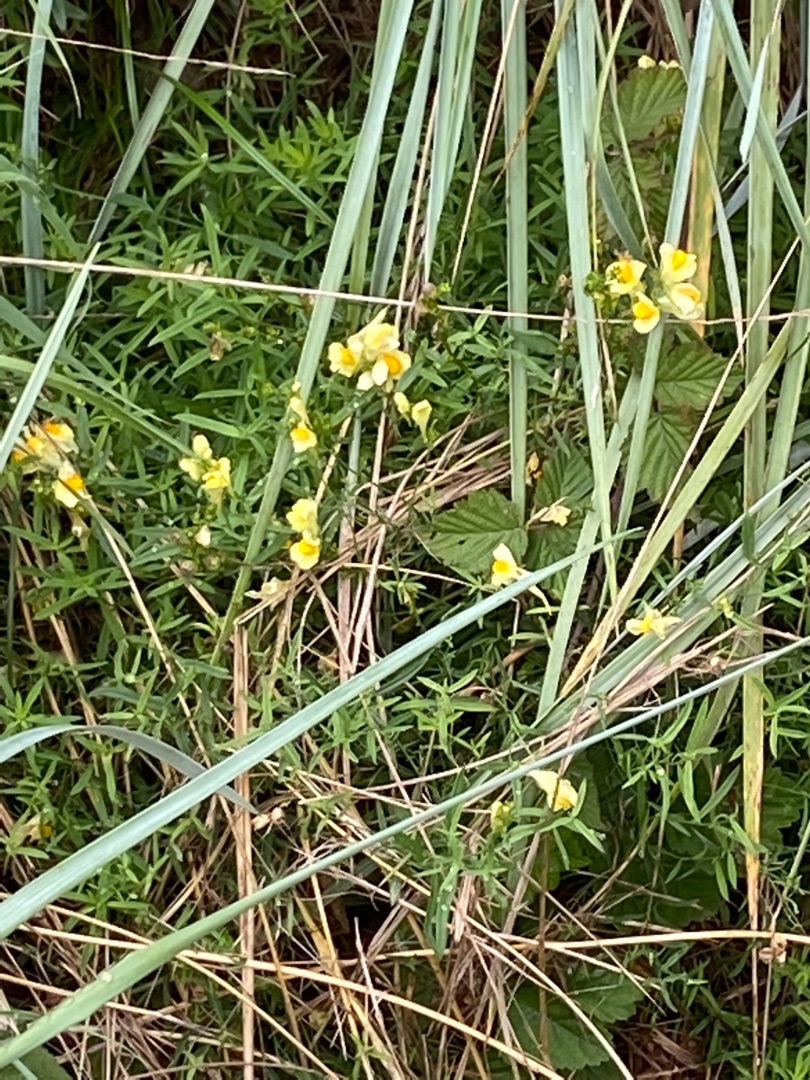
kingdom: Plantae
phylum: Tracheophyta
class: Magnoliopsida
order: Lamiales
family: Plantaginaceae
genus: Linaria
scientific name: Linaria vulgaris
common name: Almindelig torskemund
